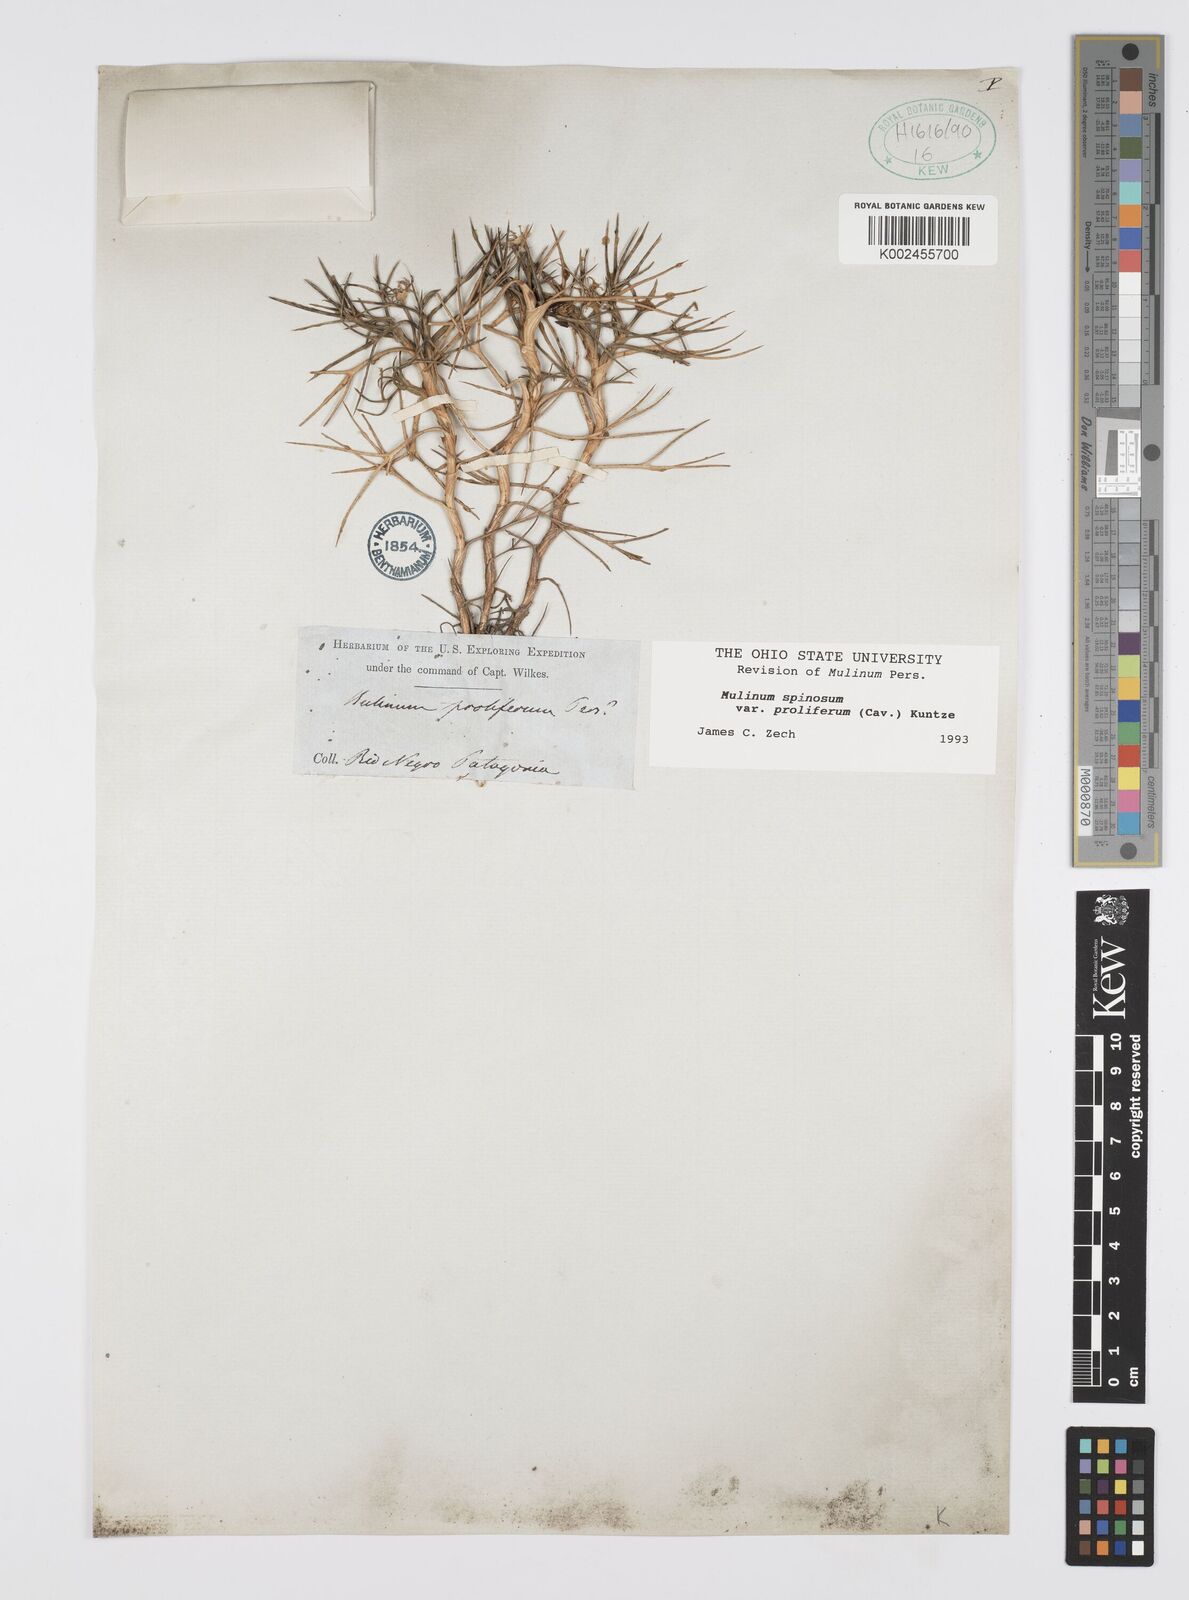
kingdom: Plantae
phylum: Tracheophyta
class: Magnoliopsida
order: Apiales
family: Apiaceae
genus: Azorella
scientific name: Azorella prolifera
